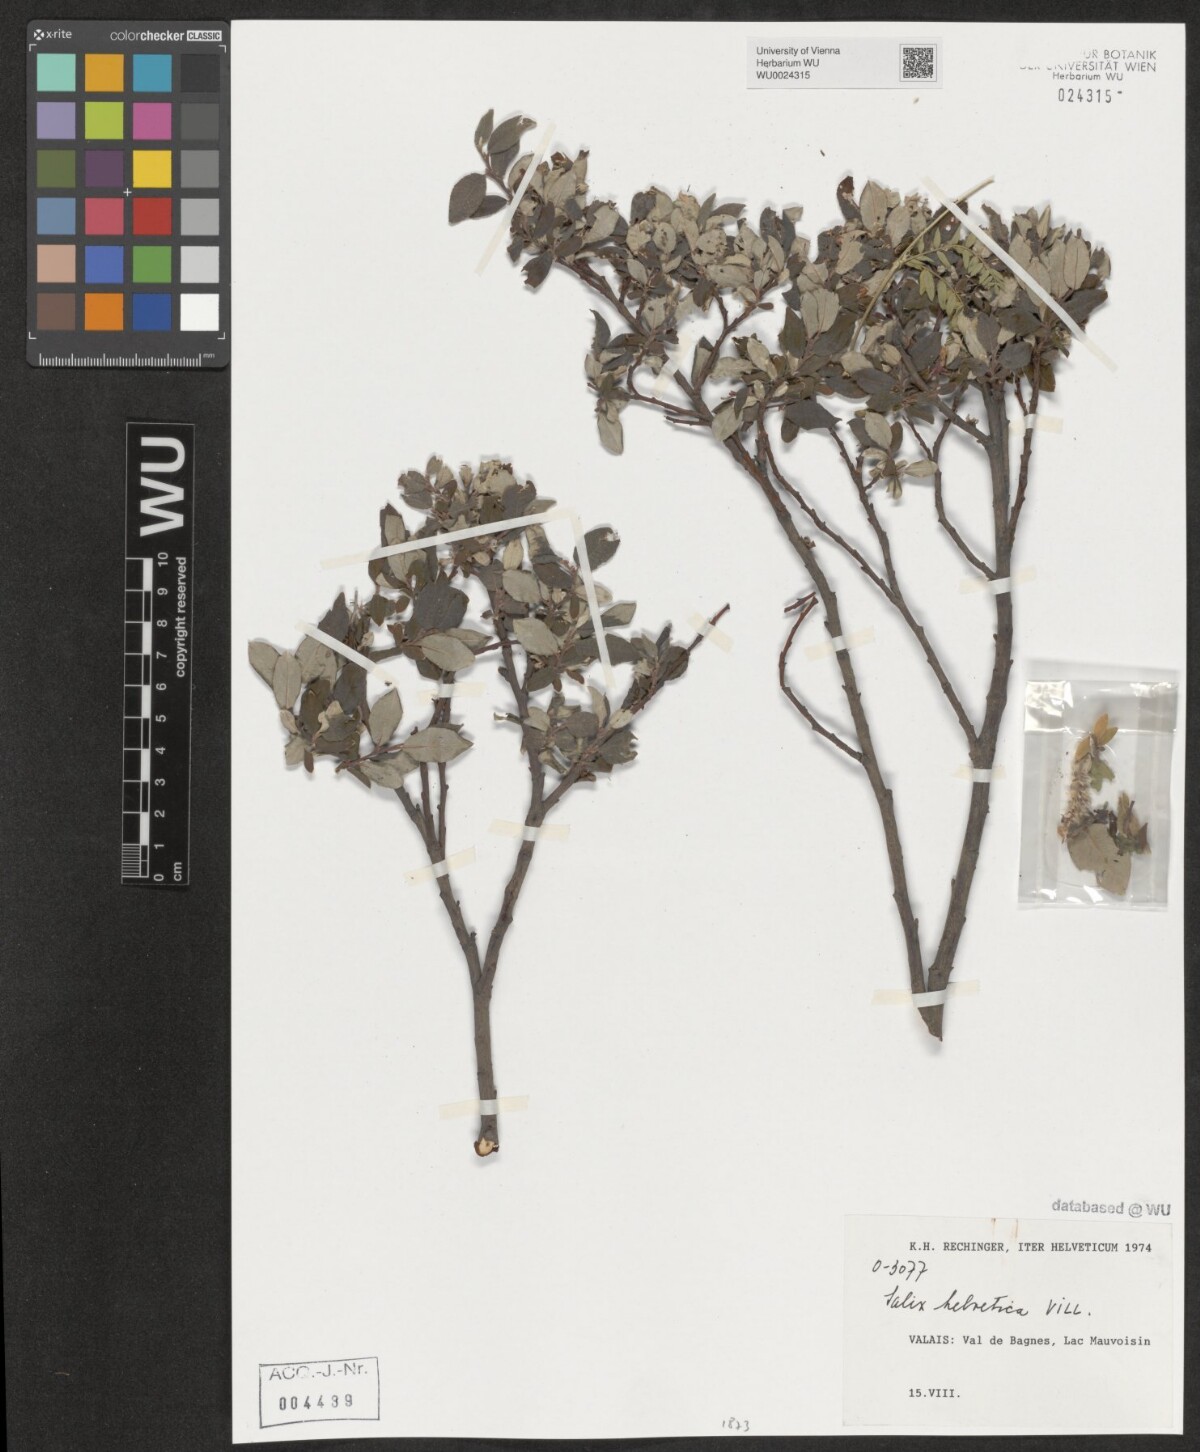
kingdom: Plantae
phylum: Tracheophyta
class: Magnoliopsida
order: Malpighiales
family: Salicaceae
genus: Salix
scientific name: Salix helvetica
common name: Swiss willow
